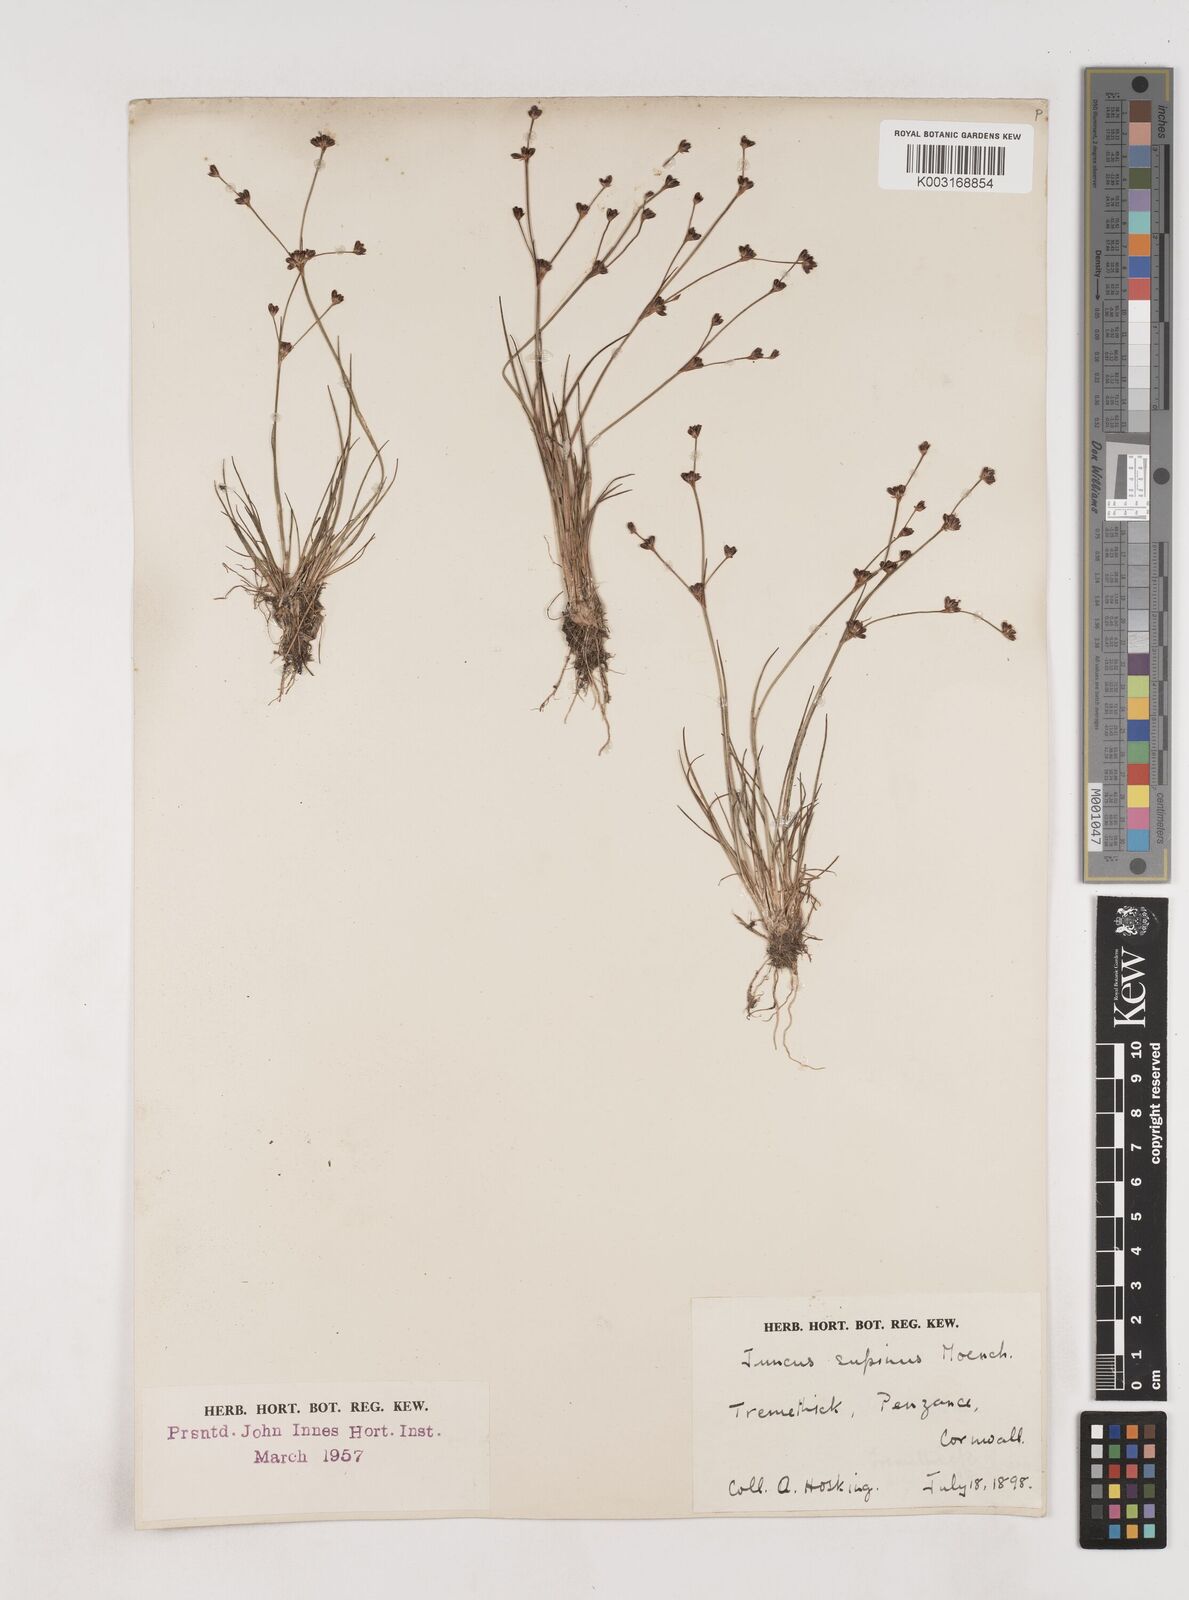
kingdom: Plantae
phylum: Tracheophyta
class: Liliopsida
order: Poales
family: Juncaceae
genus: Juncus
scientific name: Juncus bulbosus
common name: Bulbous rush
